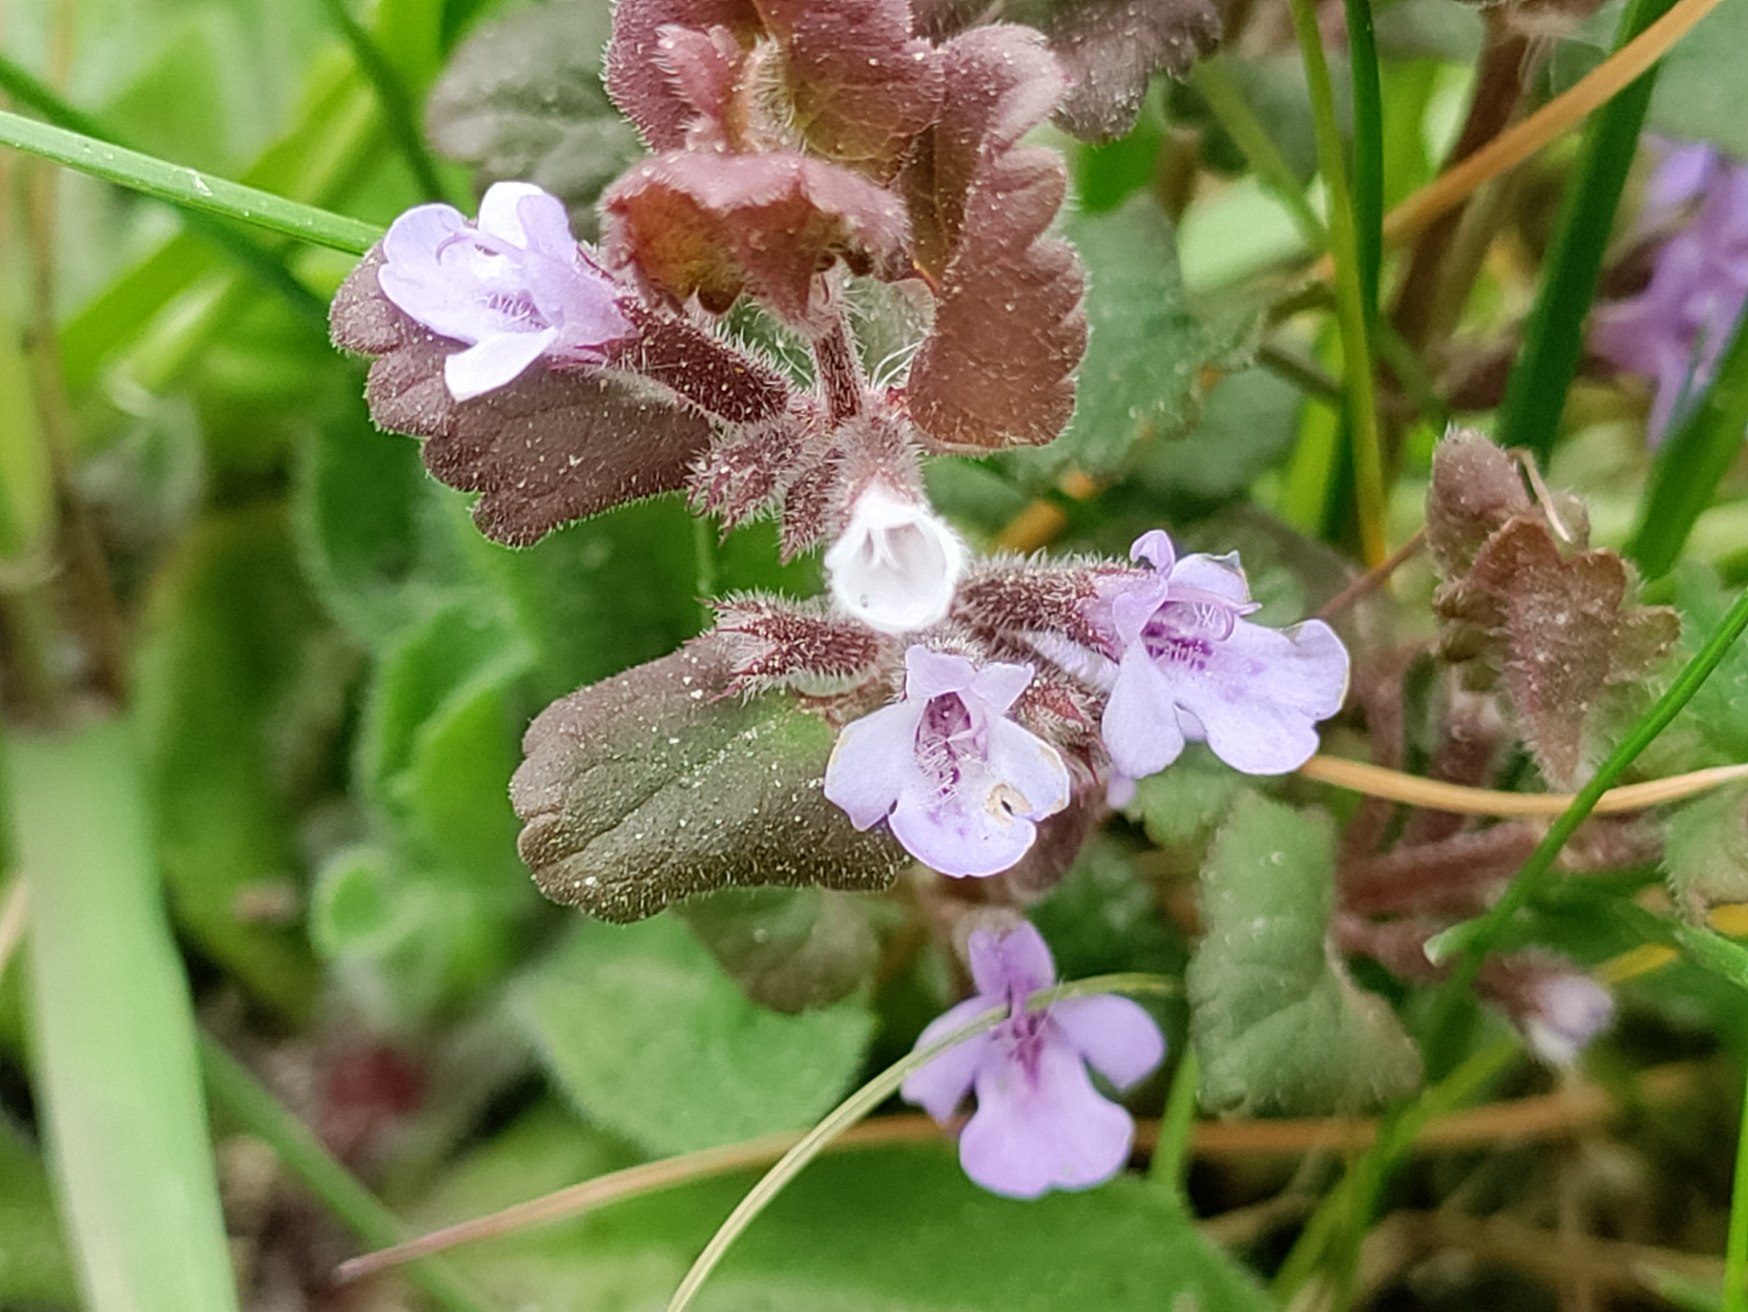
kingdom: Plantae
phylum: Tracheophyta
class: Magnoliopsida
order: Lamiales
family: Lamiaceae
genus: Glechoma
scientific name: Glechoma hederacea
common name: Korsknap
